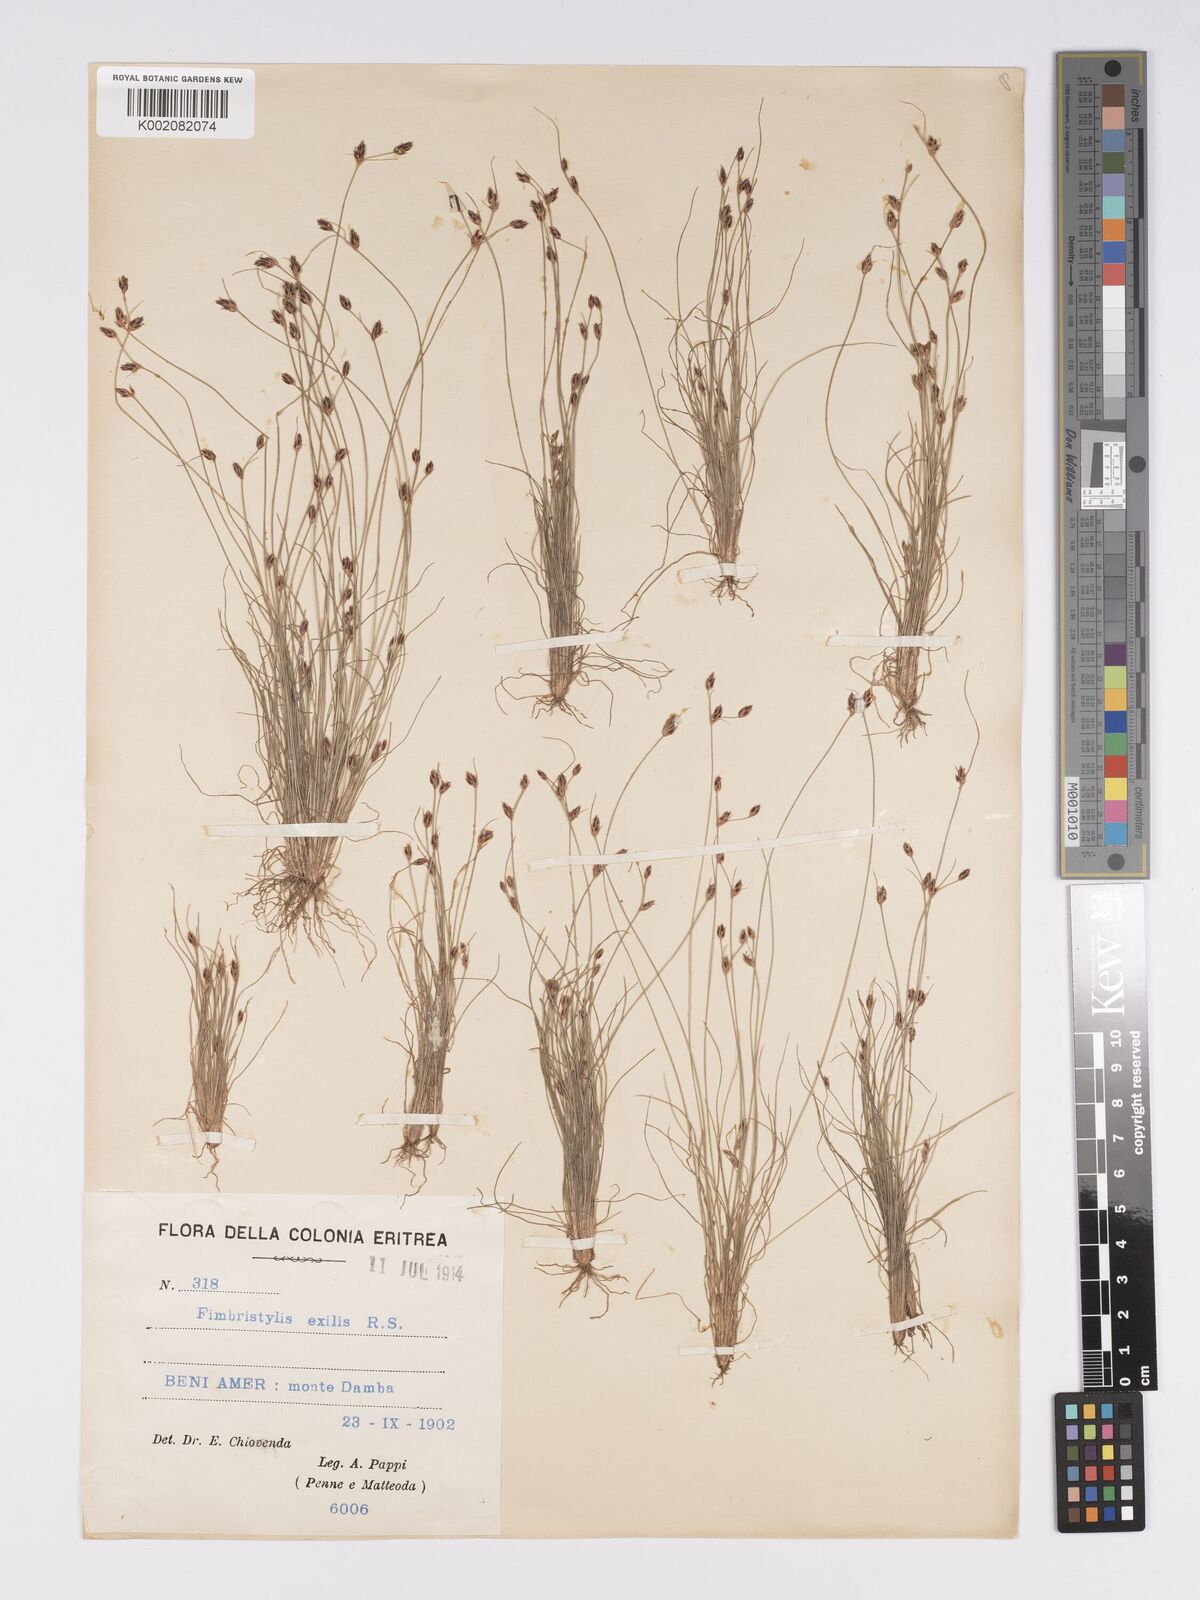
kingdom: Plantae
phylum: Tracheophyta
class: Liliopsida
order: Poales
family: Cyperaceae
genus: Bulbostylis
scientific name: Bulbostylis hispidula
